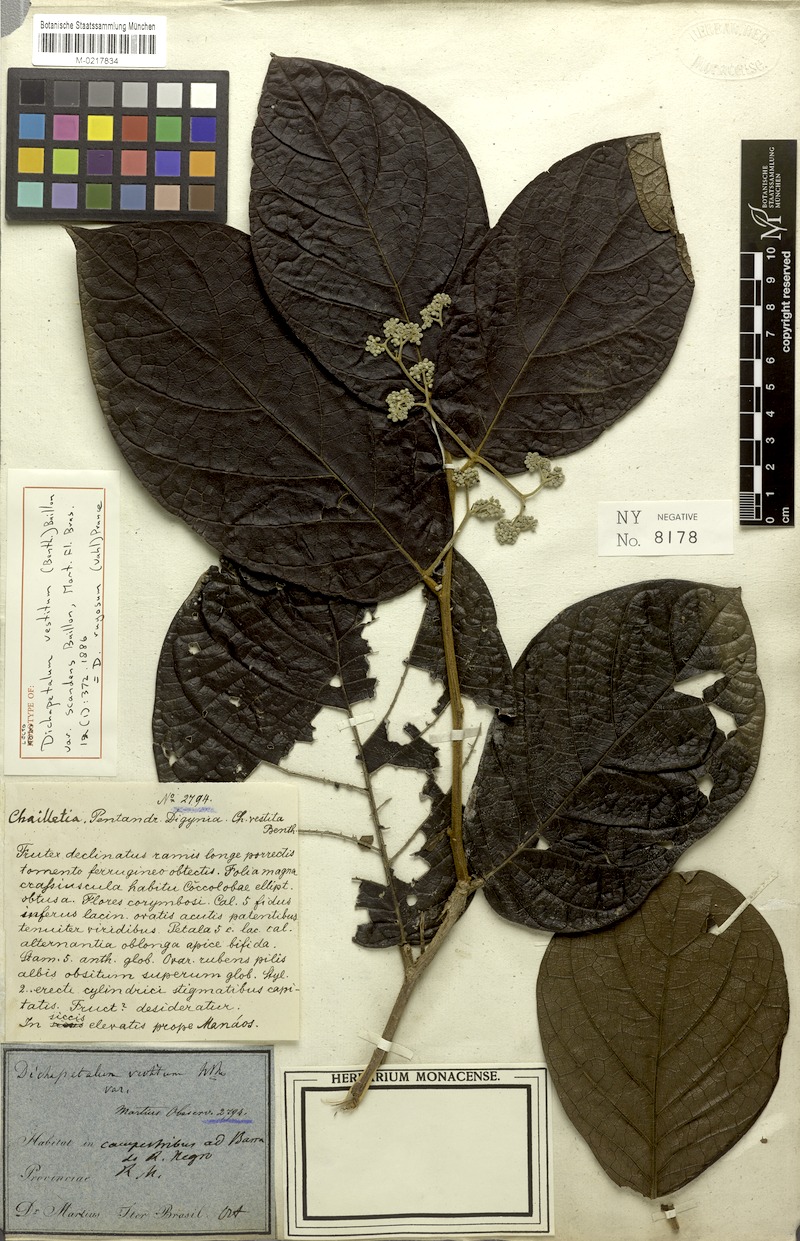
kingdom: Plantae
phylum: Tracheophyta
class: Magnoliopsida
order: Malpighiales
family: Dichapetalaceae
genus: Dichapetalum
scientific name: Dichapetalum rugosum
